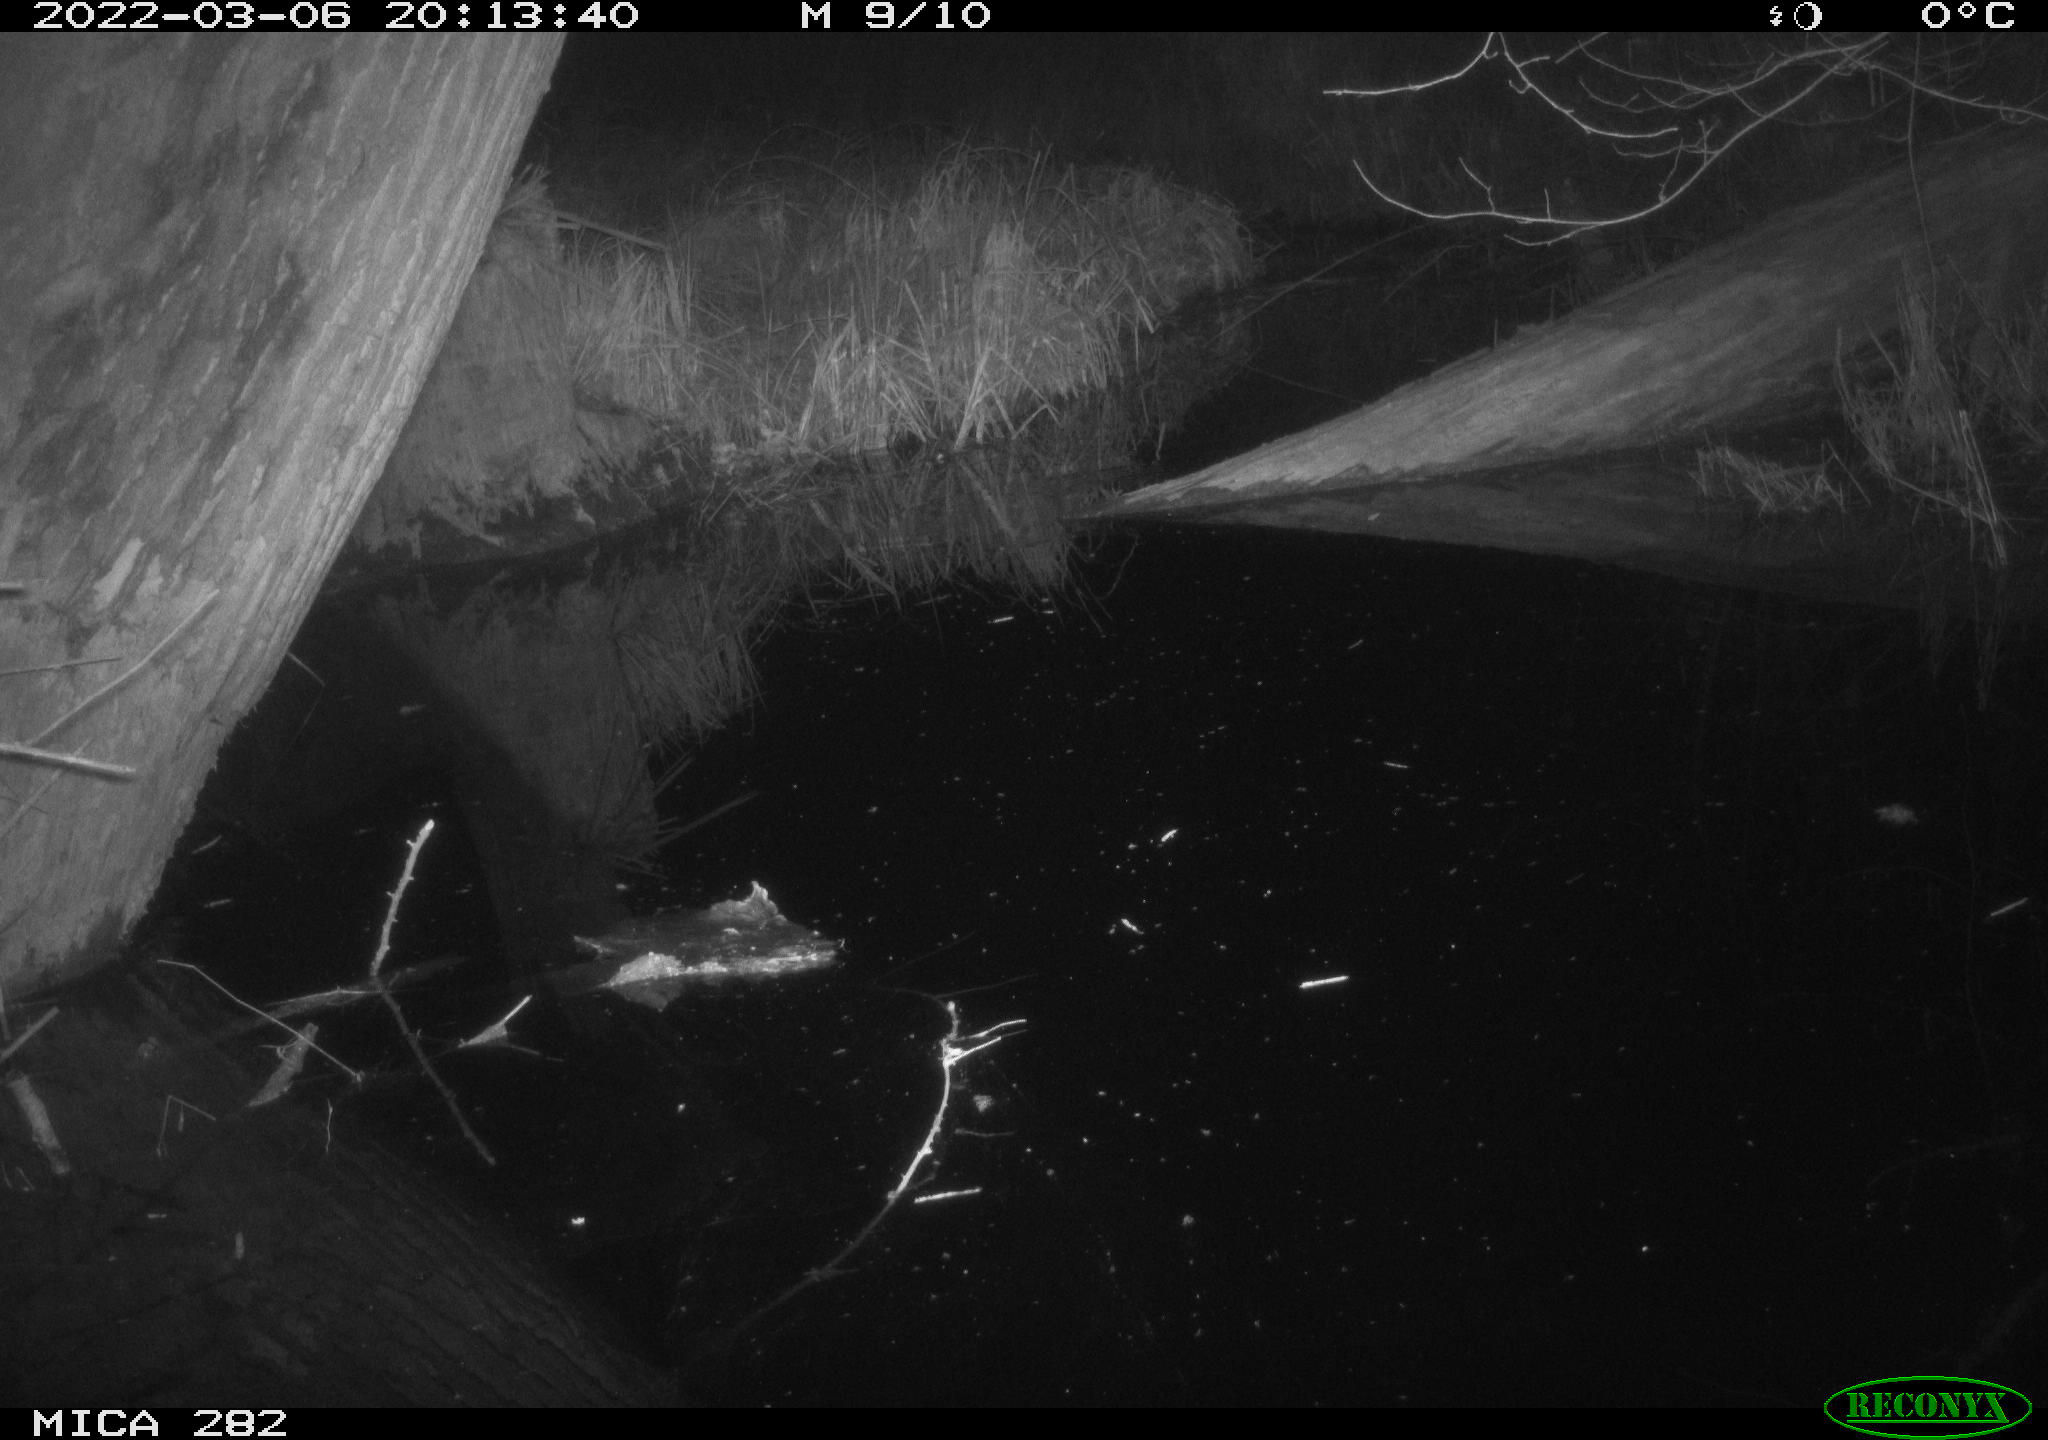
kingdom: Animalia
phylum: Chordata
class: Mammalia
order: Carnivora
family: Canidae
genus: Vulpes
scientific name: Vulpes vulpes
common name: Red fox
